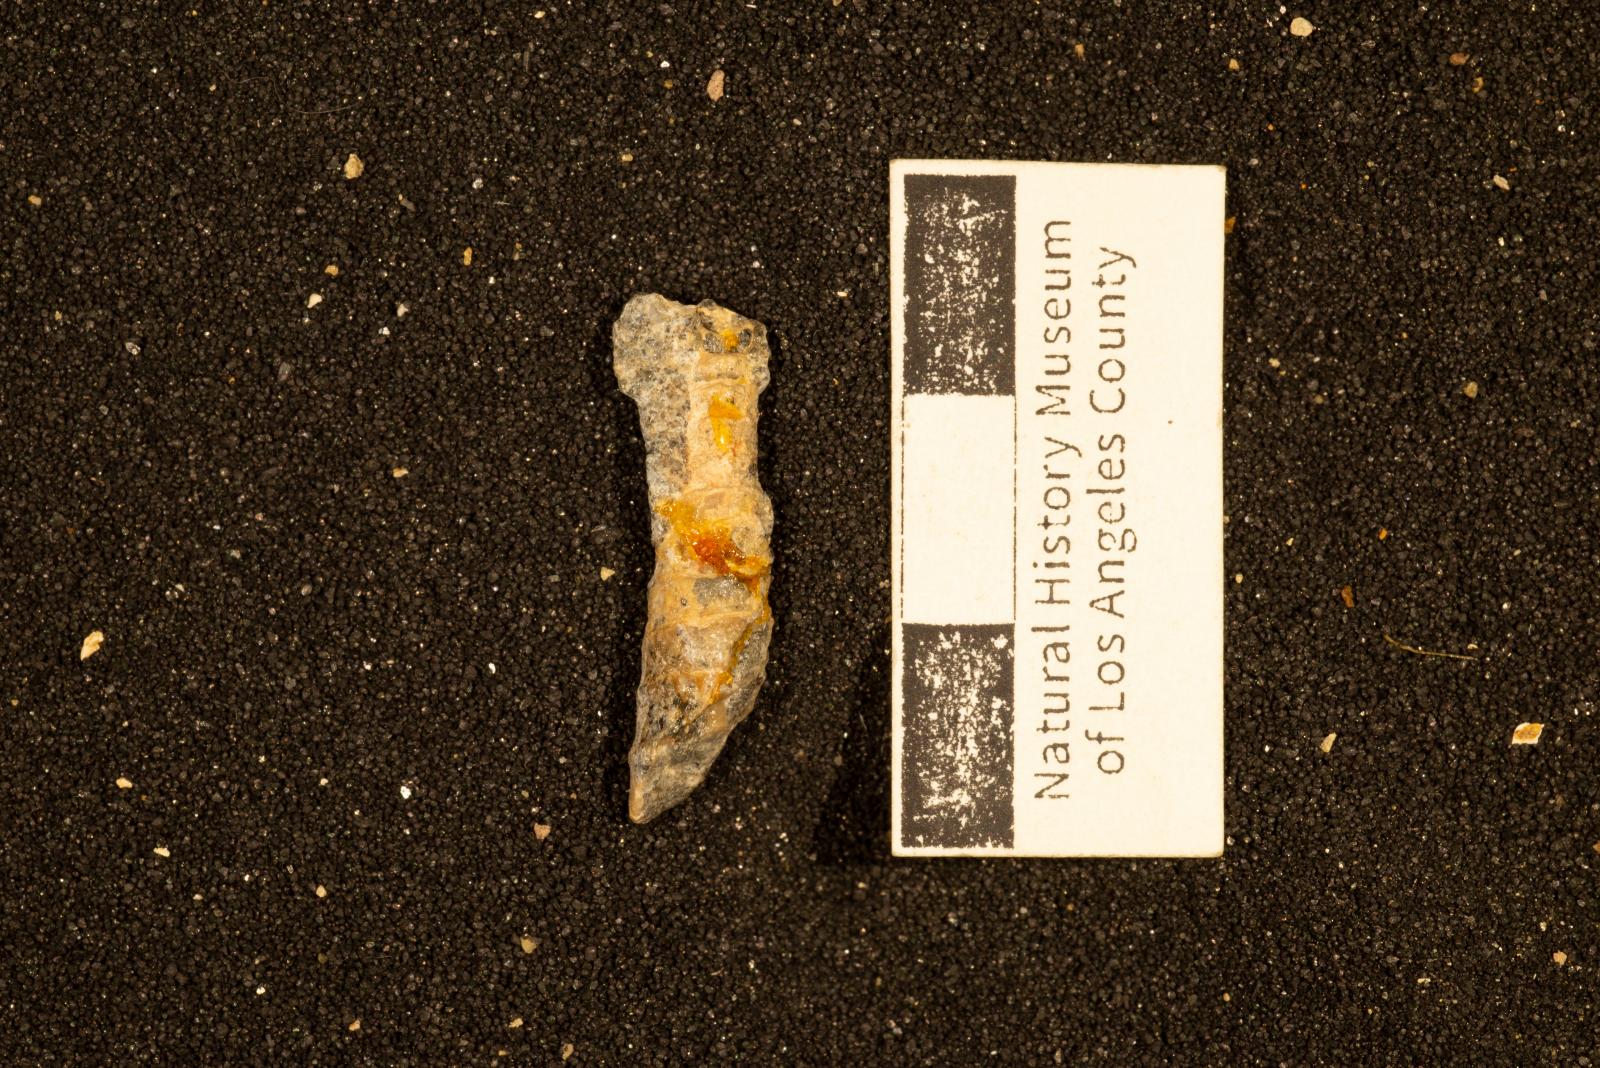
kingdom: Animalia
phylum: Mollusca
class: Gastropoda
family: Diozoptyxidae
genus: Diozoptyxis
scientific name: Diozoptyxis ursana
